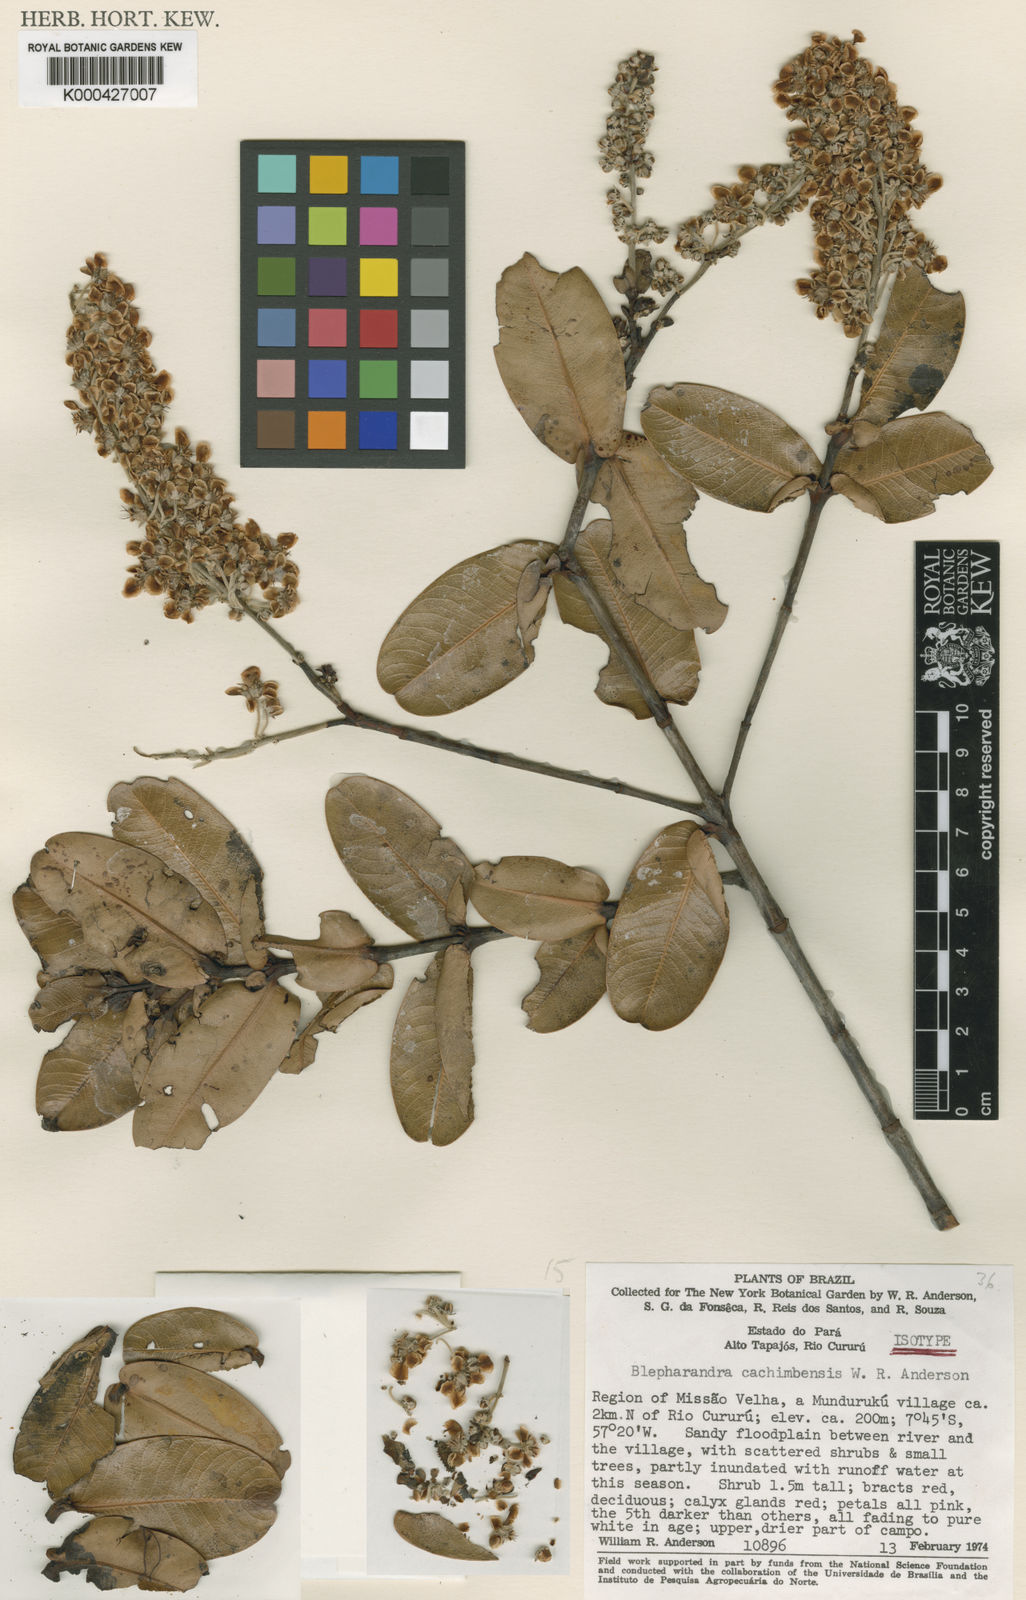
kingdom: Plantae
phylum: Tracheophyta
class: Magnoliopsida
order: Malpighiales
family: Malpighiaceae
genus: Blepharandra
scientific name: Blepharandra cachimbensis
